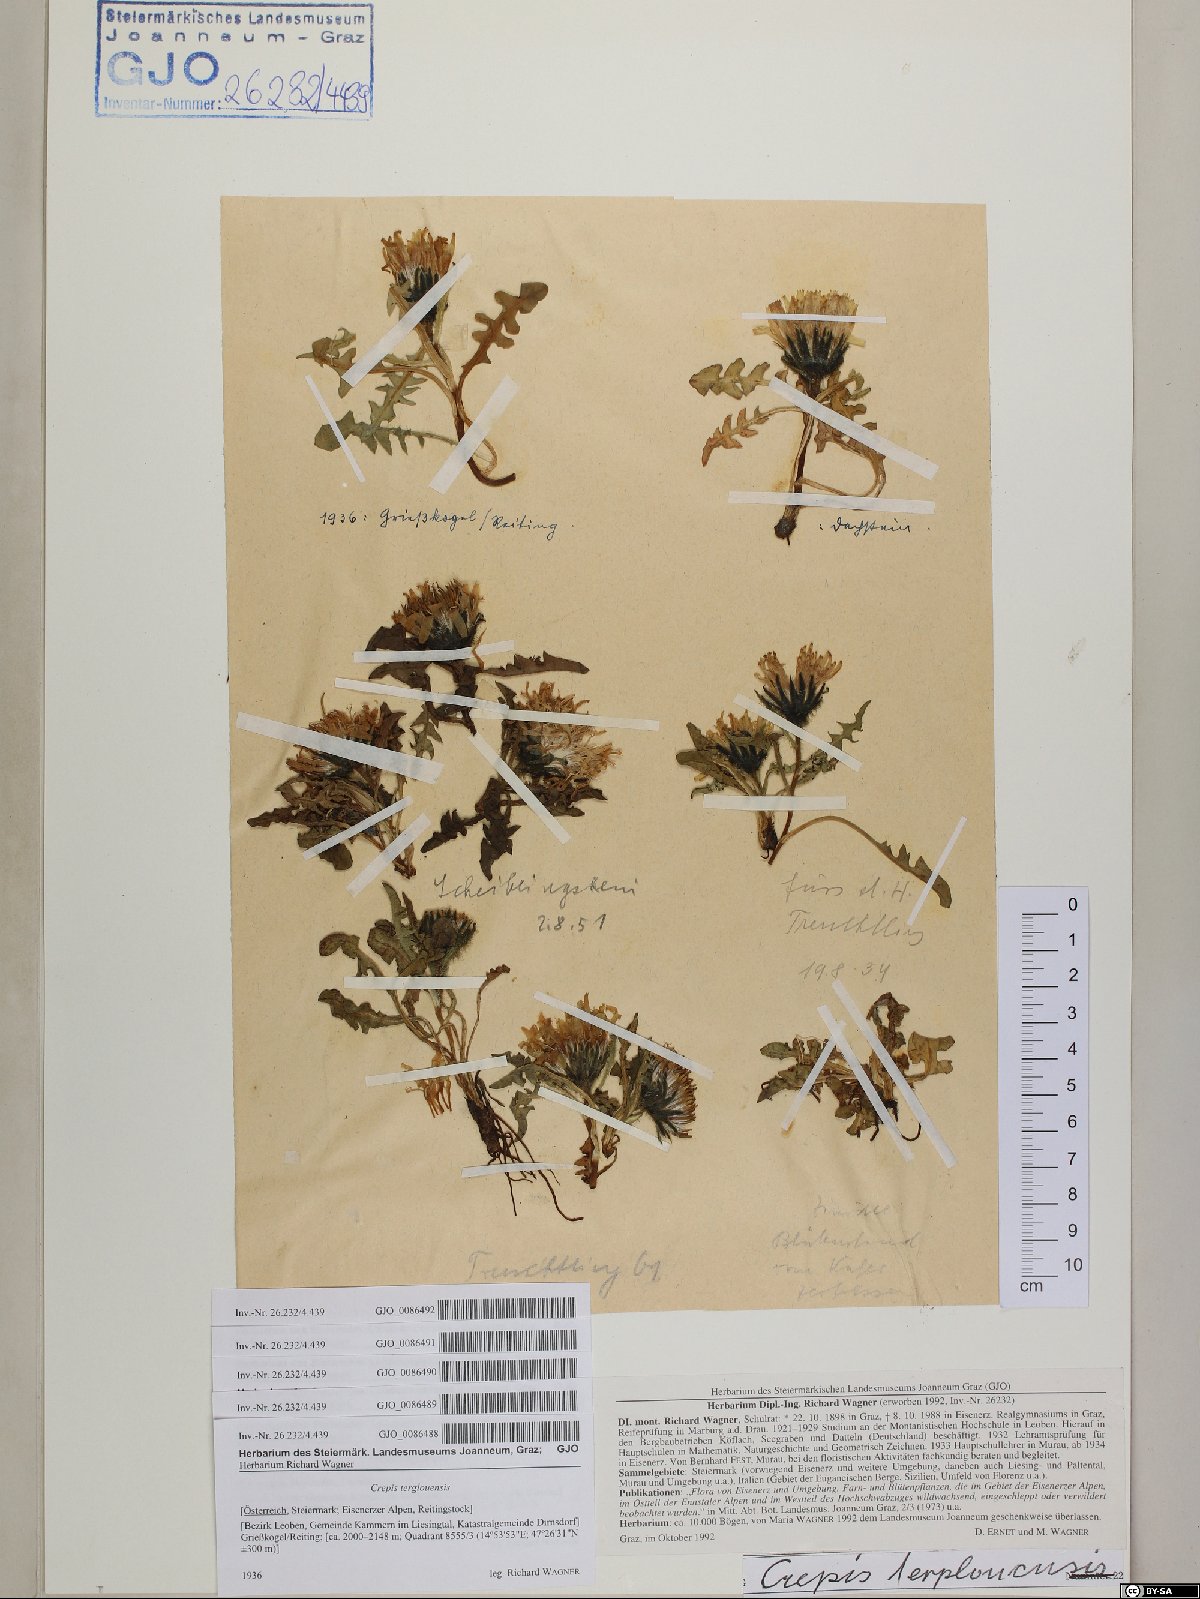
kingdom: Plantae
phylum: Tracheophyta
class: Magnoliopsida
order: Asterales
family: Asteraceae
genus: Crepis
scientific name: Crepis terglouensis
